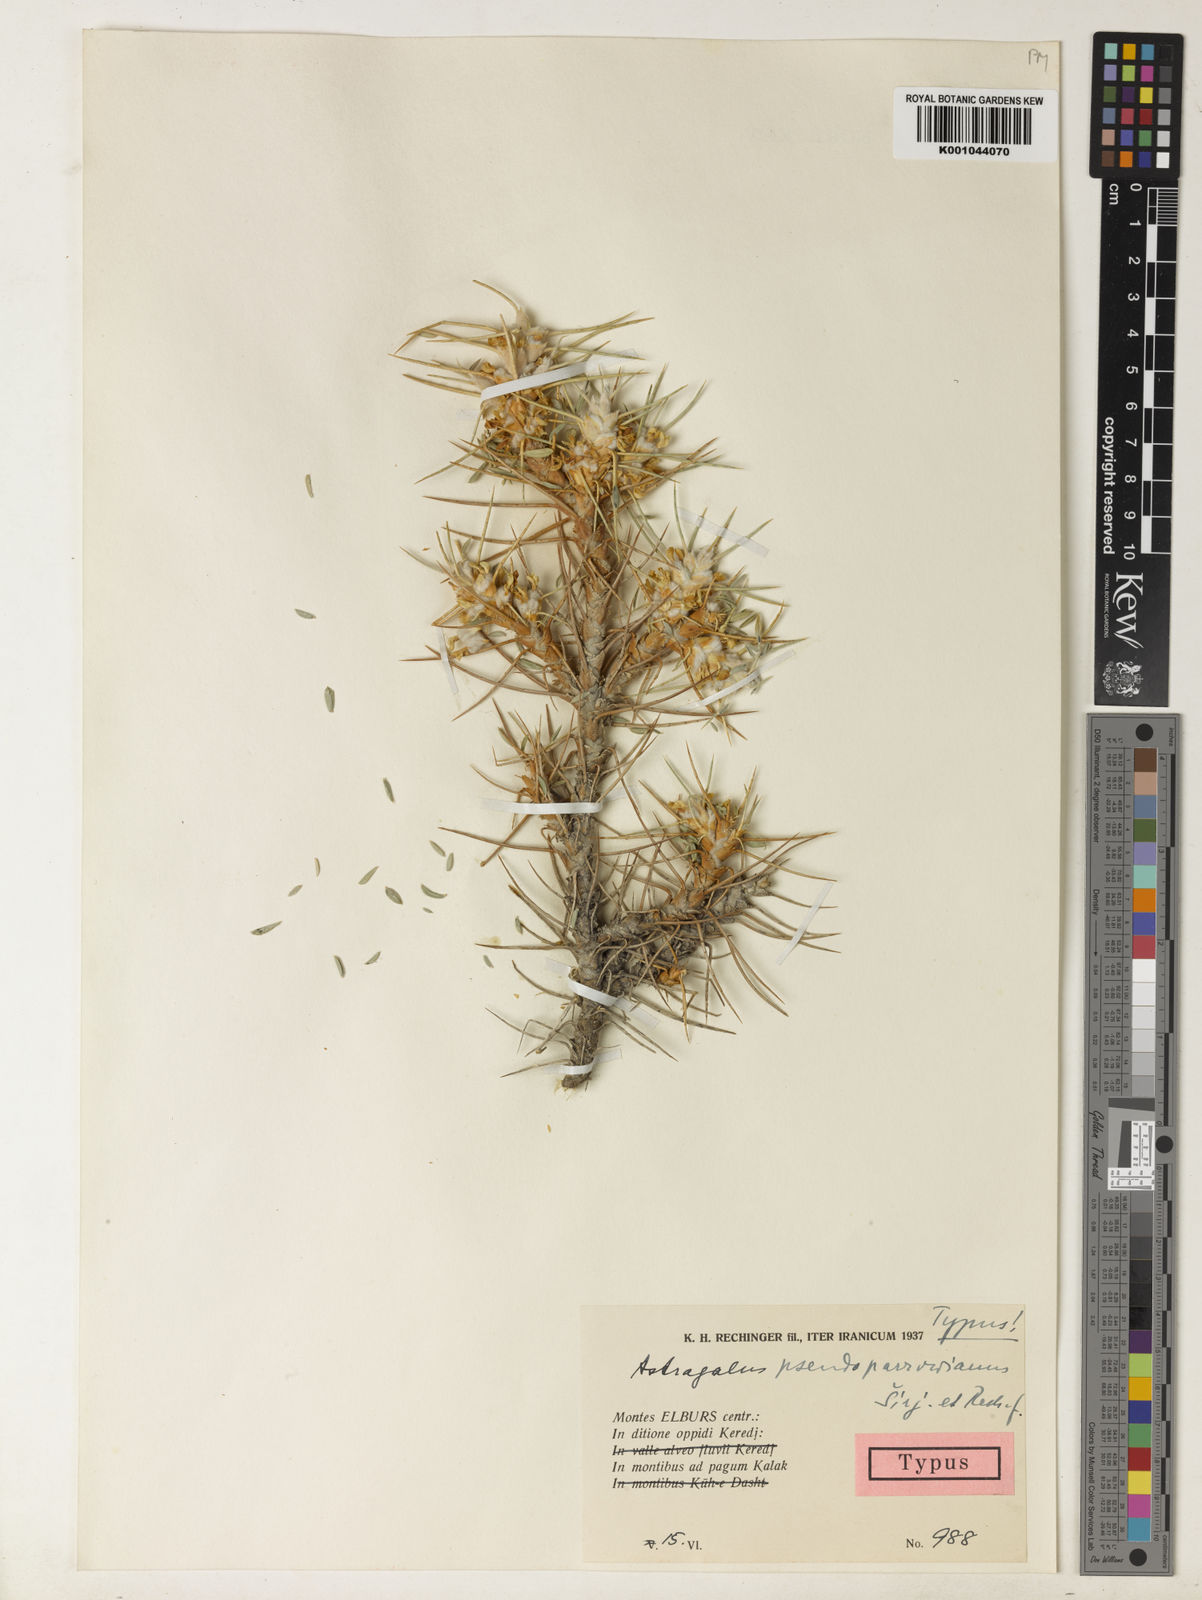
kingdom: Plantae
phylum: Tracheophyta
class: Magnoliopsida
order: Fabales
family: Fabaceae
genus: Astragalus
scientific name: Astragalus floccosus
